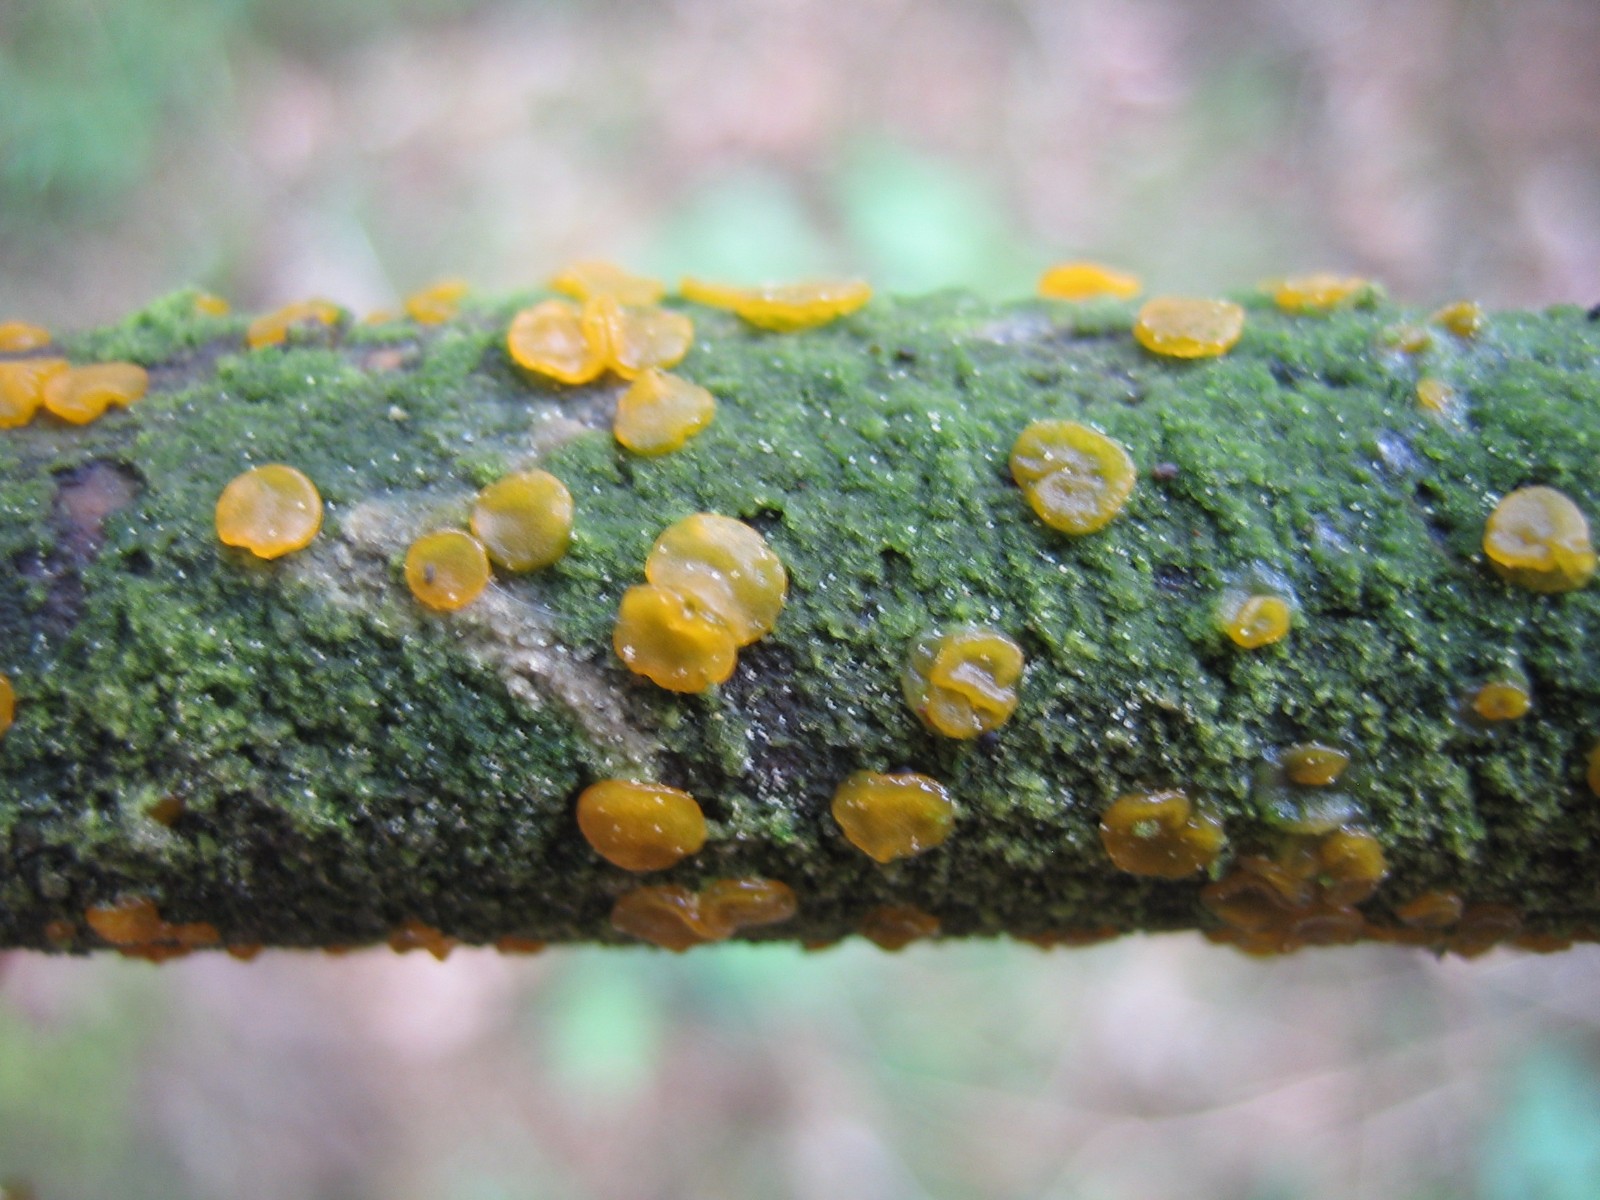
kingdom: Fungi
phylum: Basidiomycota
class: Dacrymycetes
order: Dacrymycetales
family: Dacrymycetaceae
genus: Dacrymyces
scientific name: Dacrymyces
